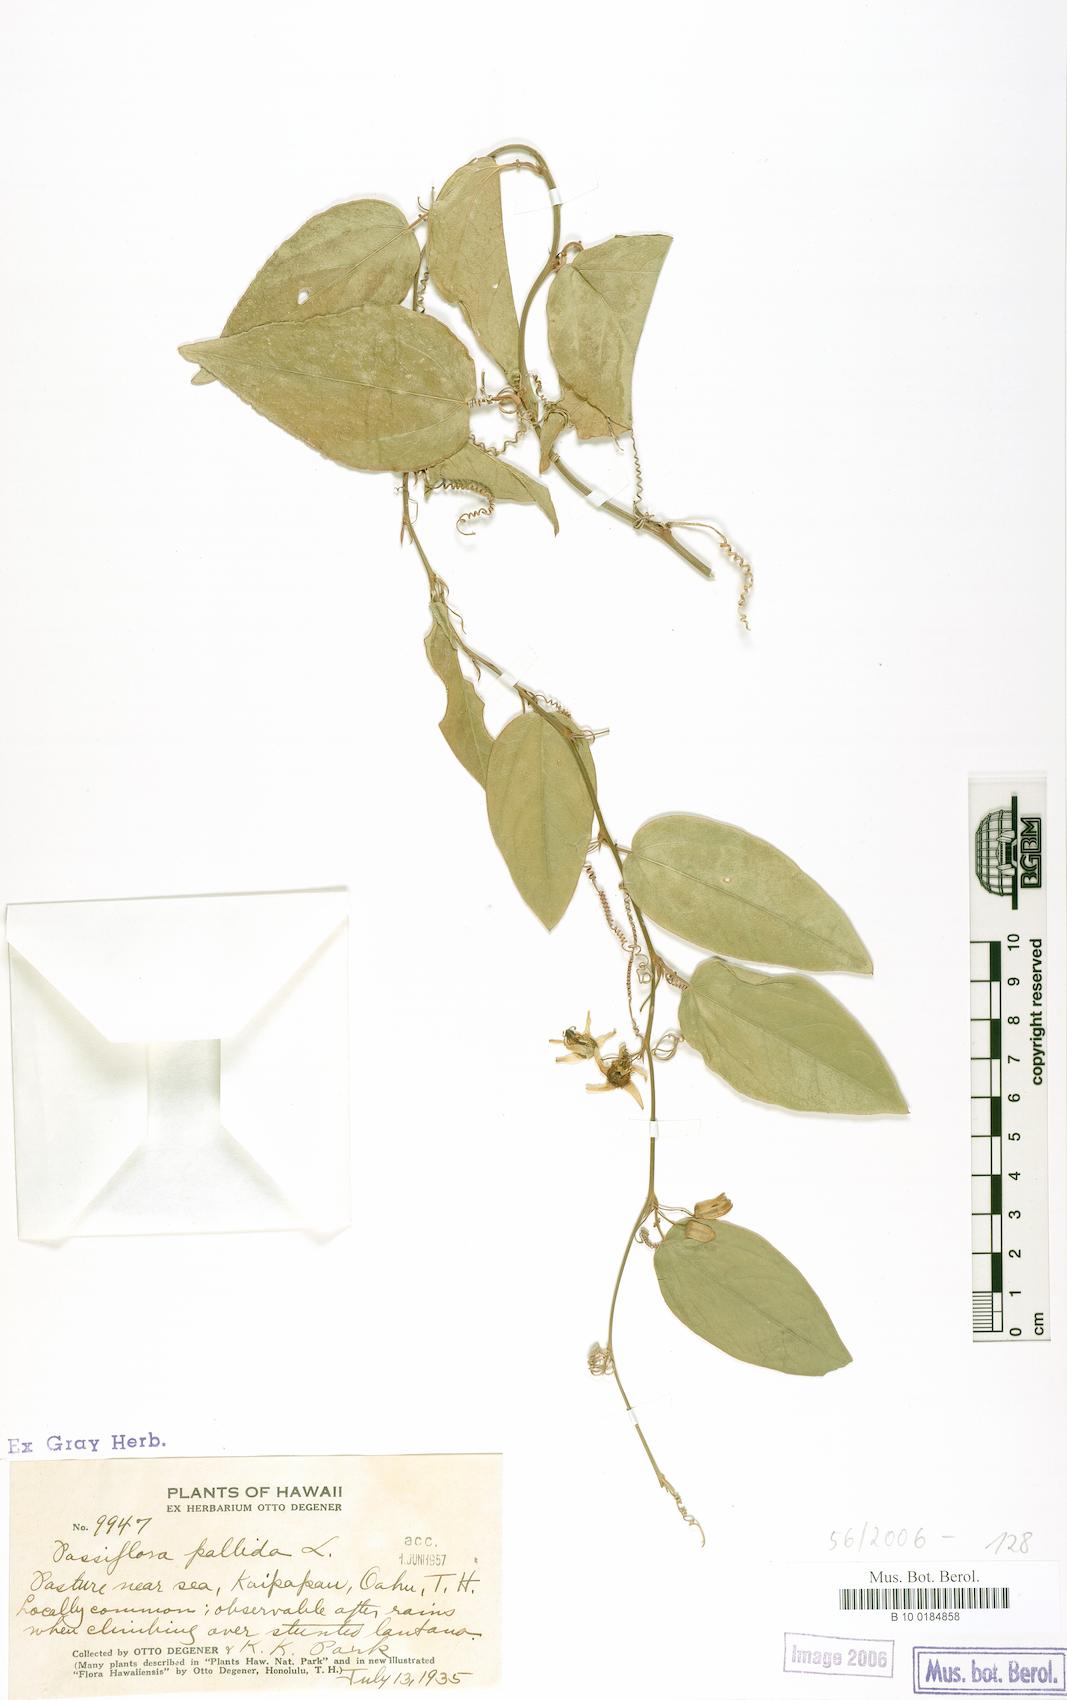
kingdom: Plantae
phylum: Tracheophyta
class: Magnoliopsida
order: Malpighiales
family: Passifloraceae
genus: Passiflora
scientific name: Passiflora pallida
